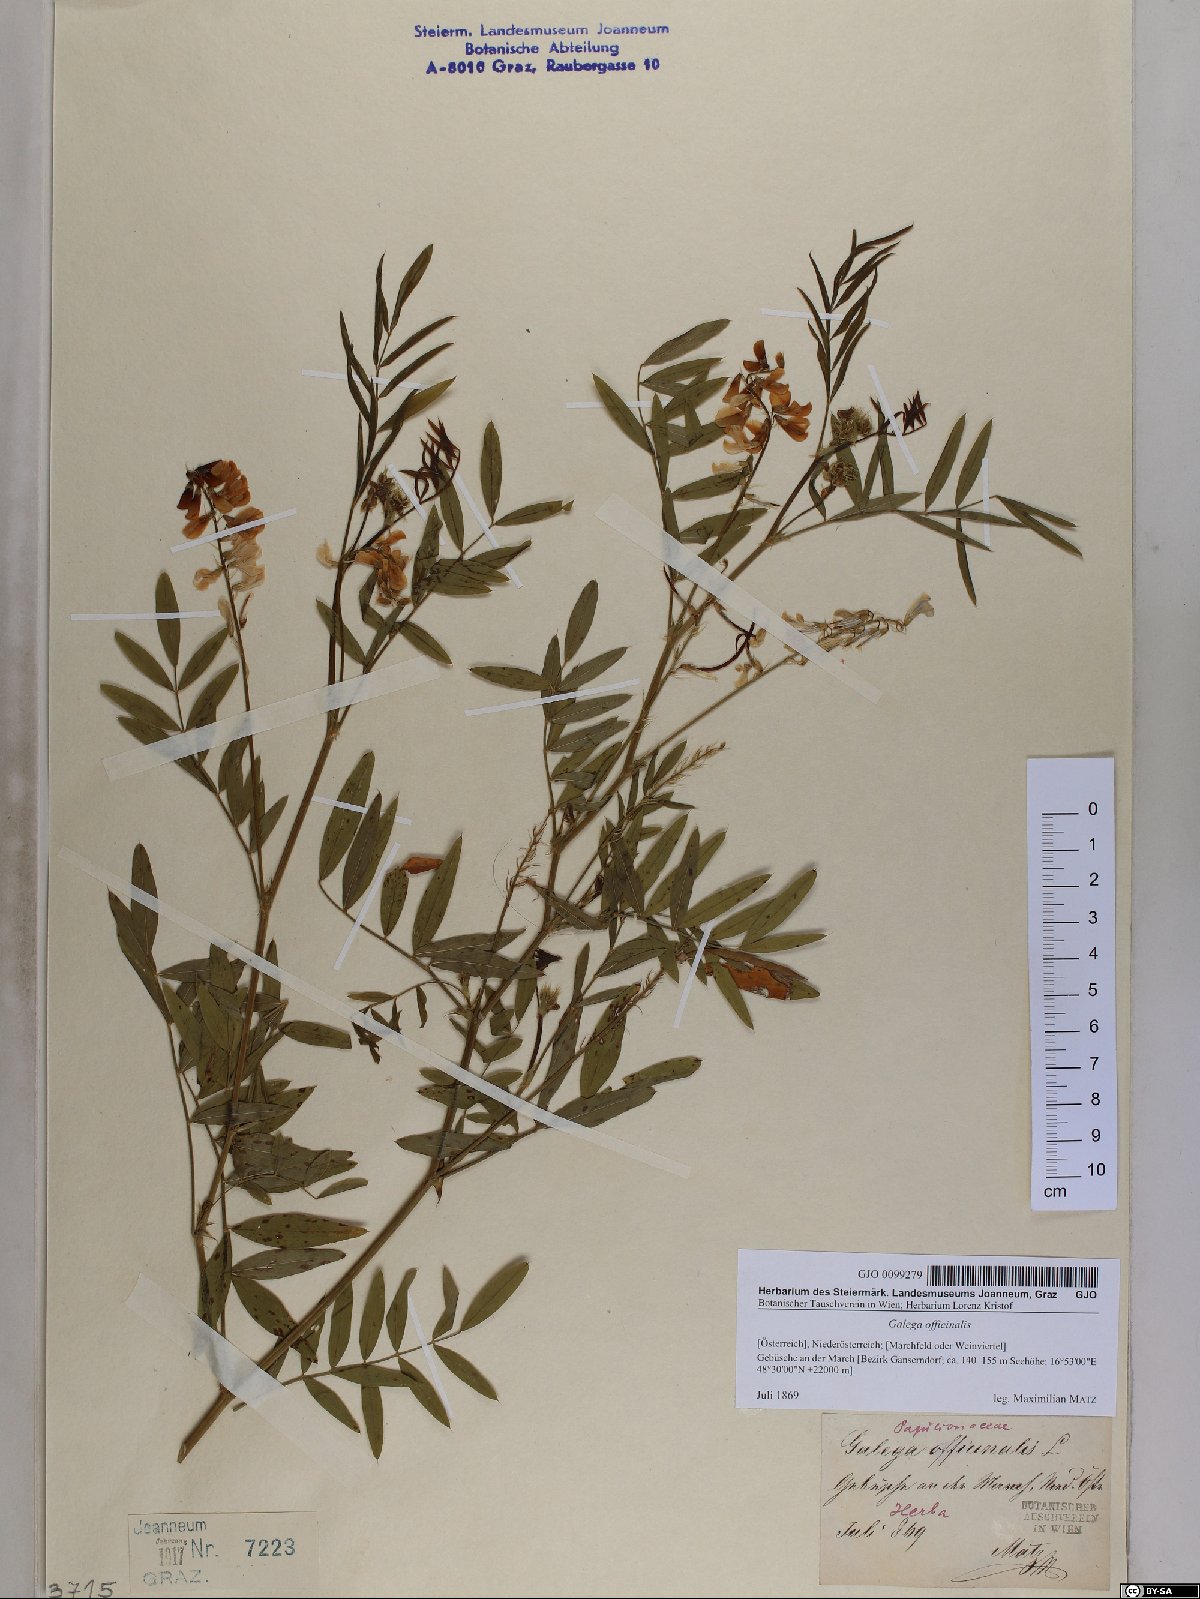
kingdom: Plantae
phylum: Tracheophyta
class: Magnoliopsida
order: Fabales
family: Fabaceae
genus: Galega
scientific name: Galega officinalis
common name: Goat's-rue
